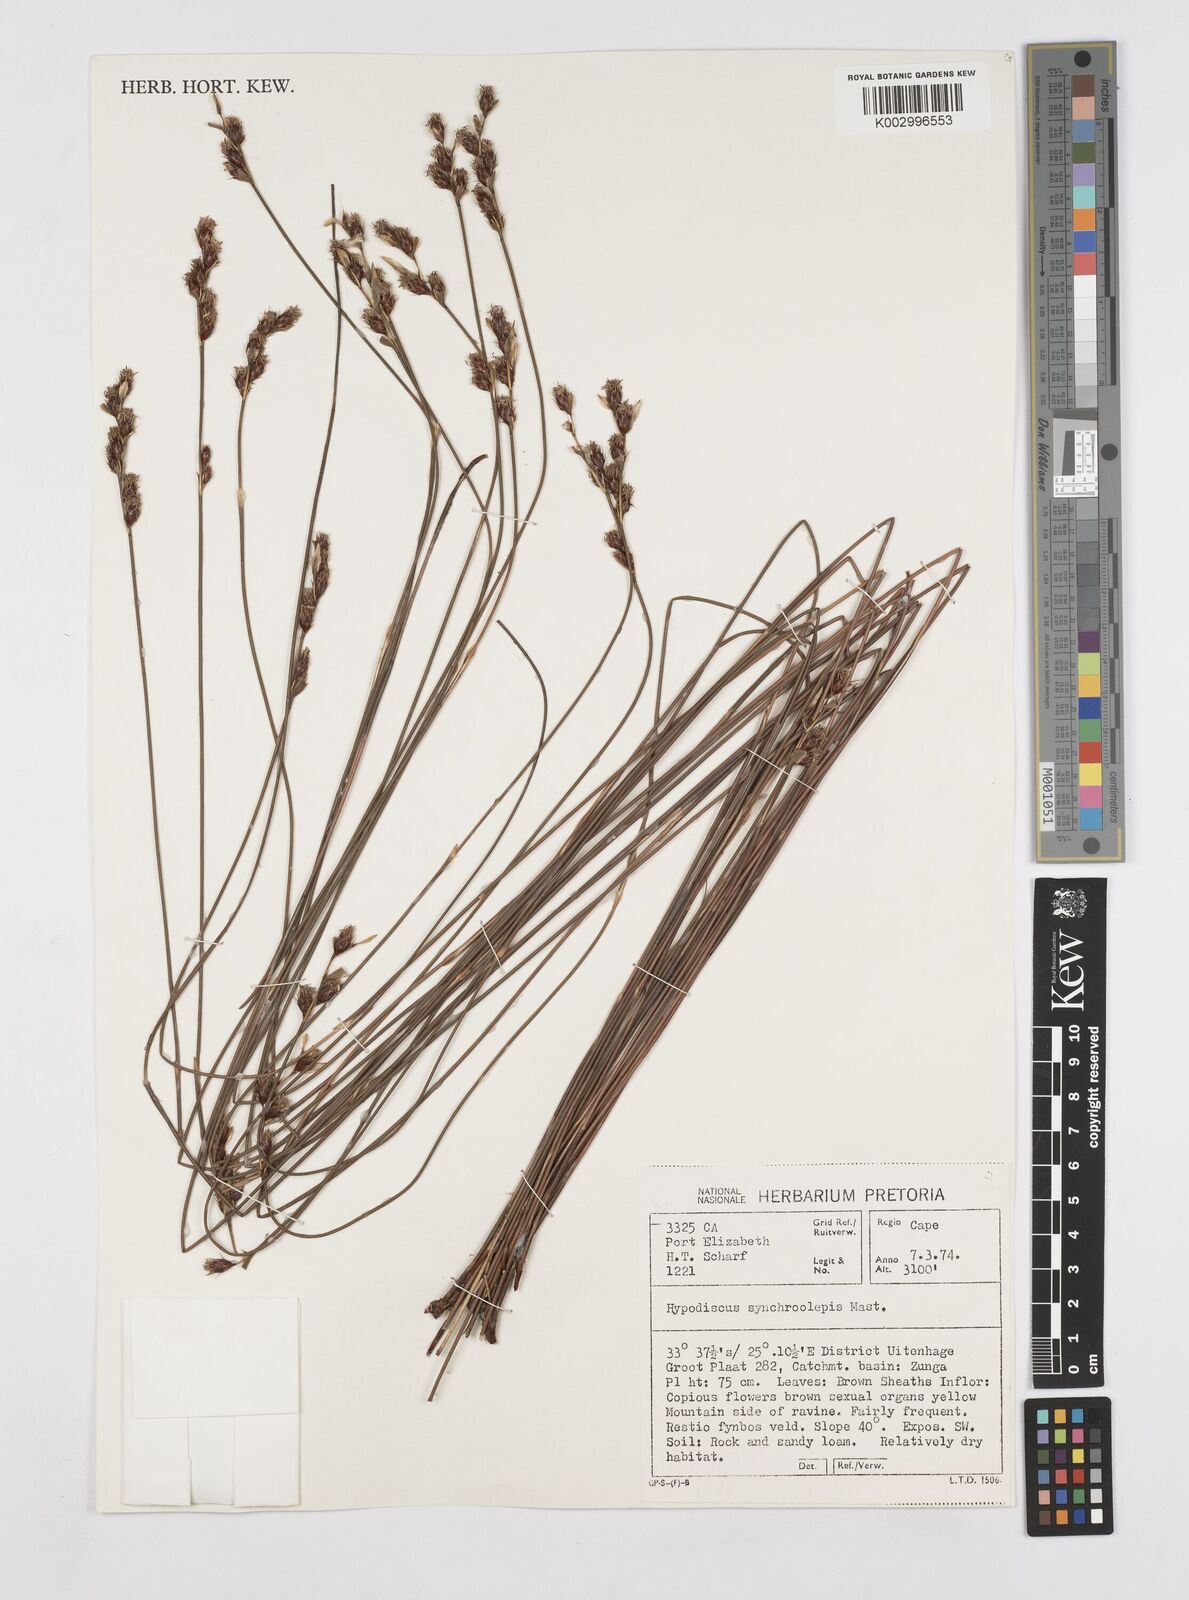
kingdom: Plantae
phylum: Tracheophyta
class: Liliopsida
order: Poales
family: Restionaceae
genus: Hypodiscus
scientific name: Hypodiscus synchroolepis
